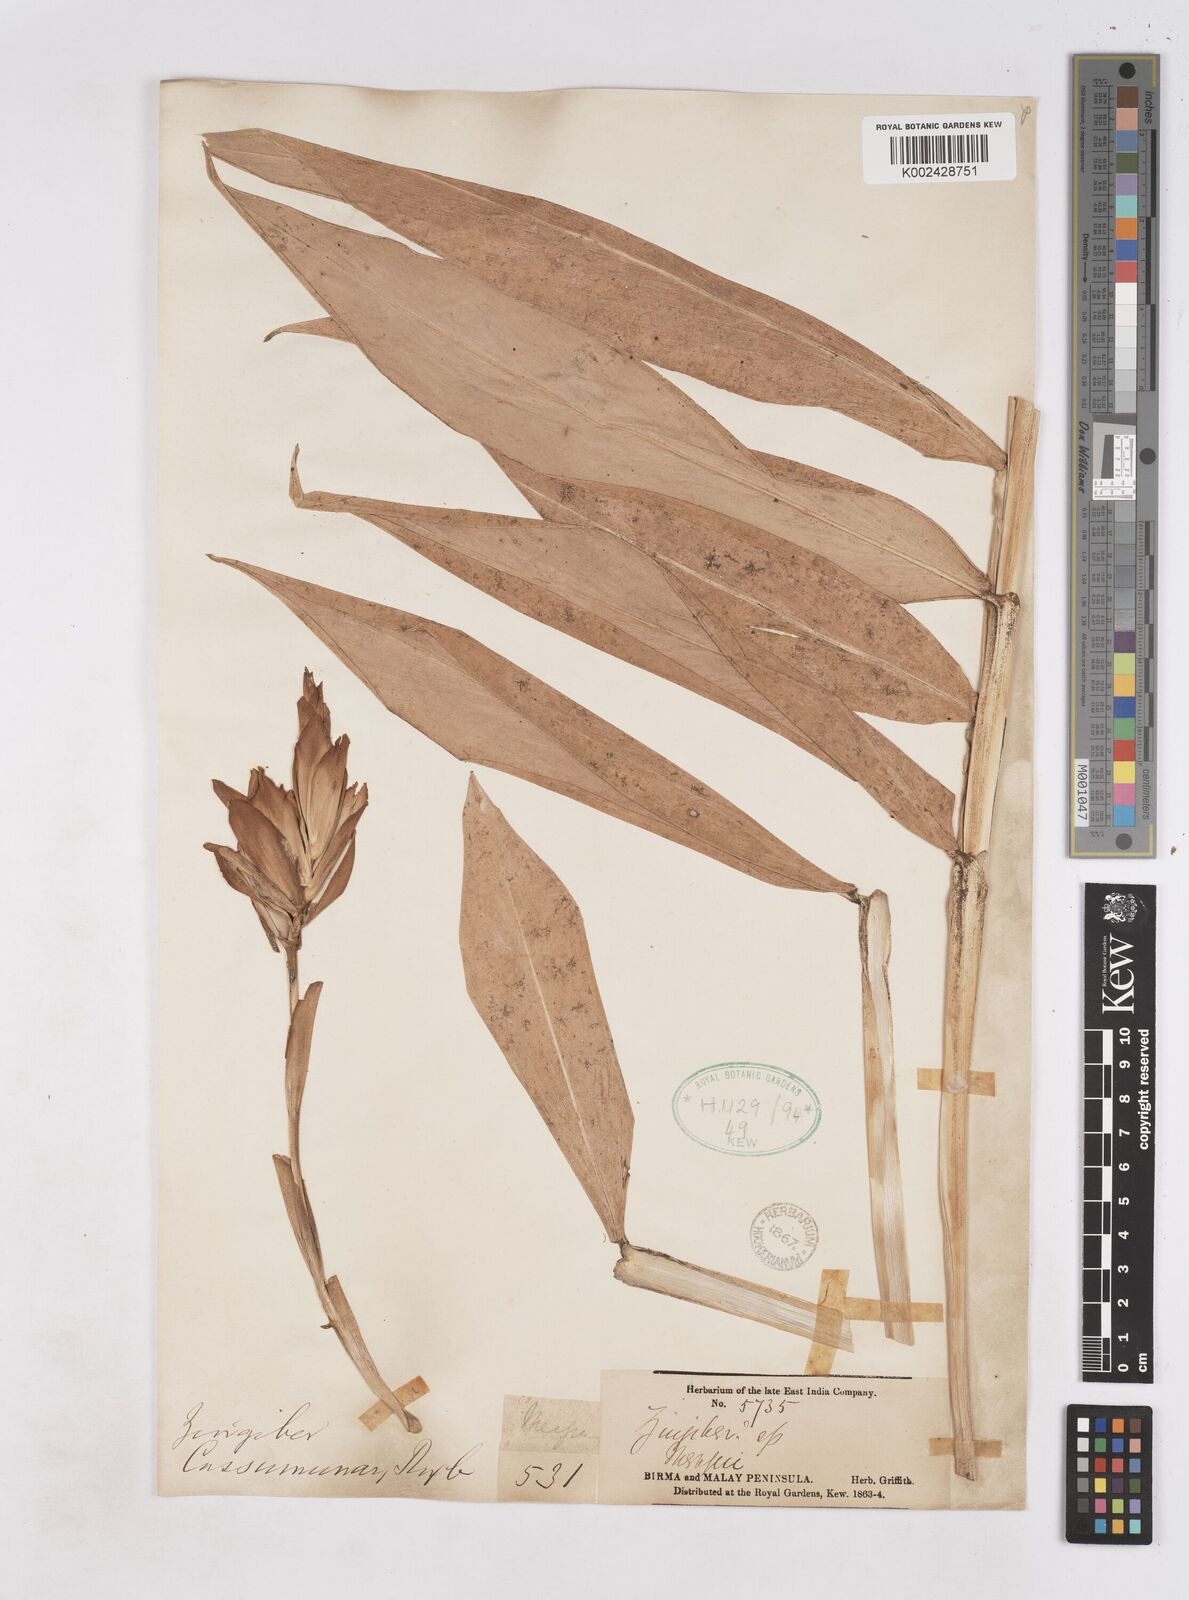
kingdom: Plantae
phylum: Tracheophyta
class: Liliopsida
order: Zingiberales
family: Zingiberaceae
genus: Zingiber
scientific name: Zingiber montanum
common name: Bengal ginger
